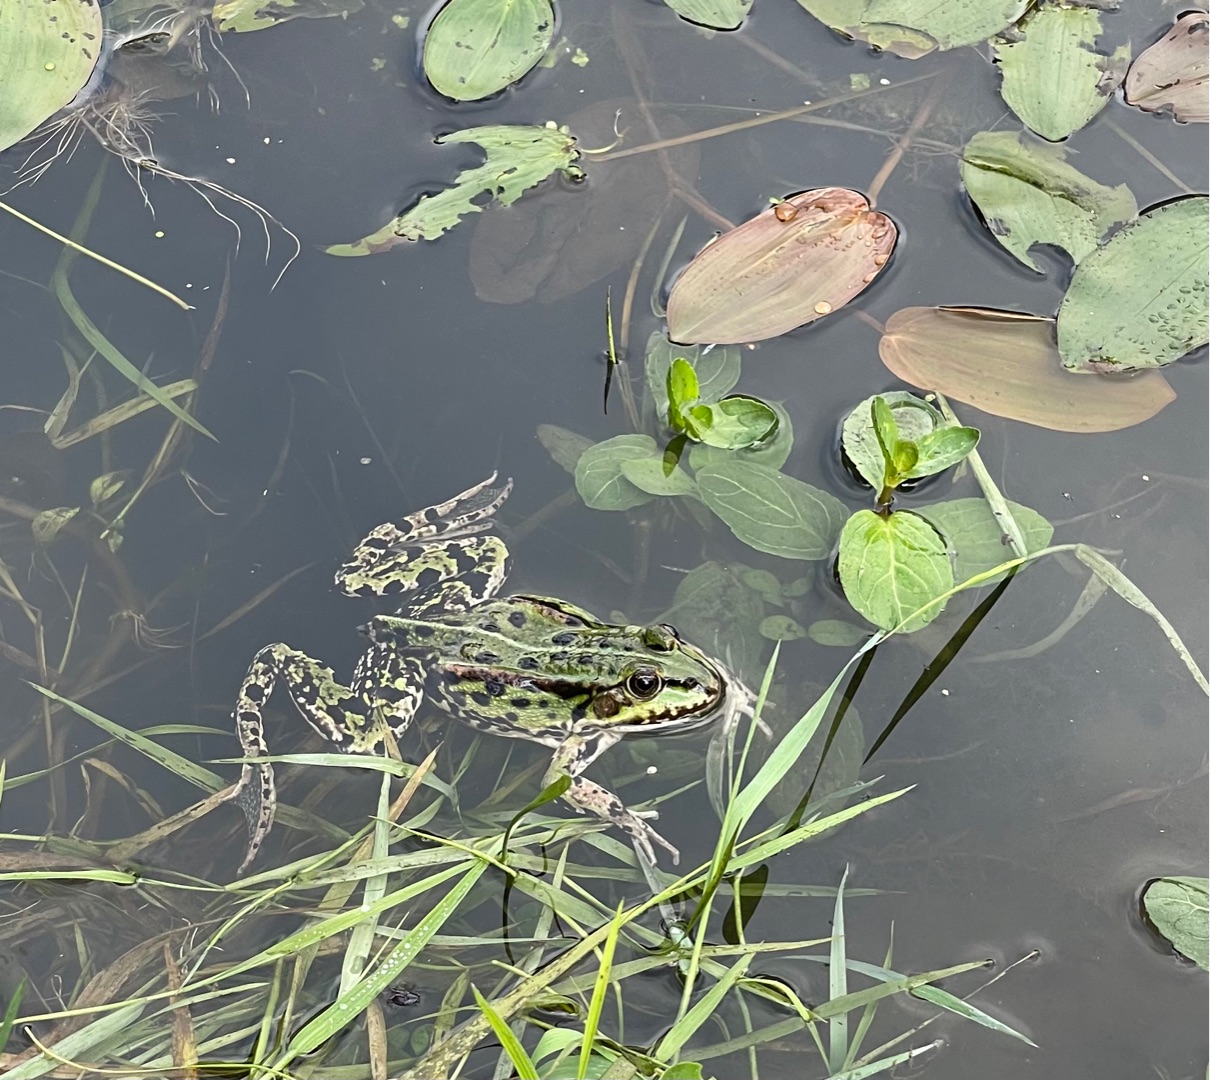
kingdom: Animalia
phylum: Chordata
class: Amphibia
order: Anura
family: Ranidae
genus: Pelophylax
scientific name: Pelophylax lessonae
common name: Grøn frø
